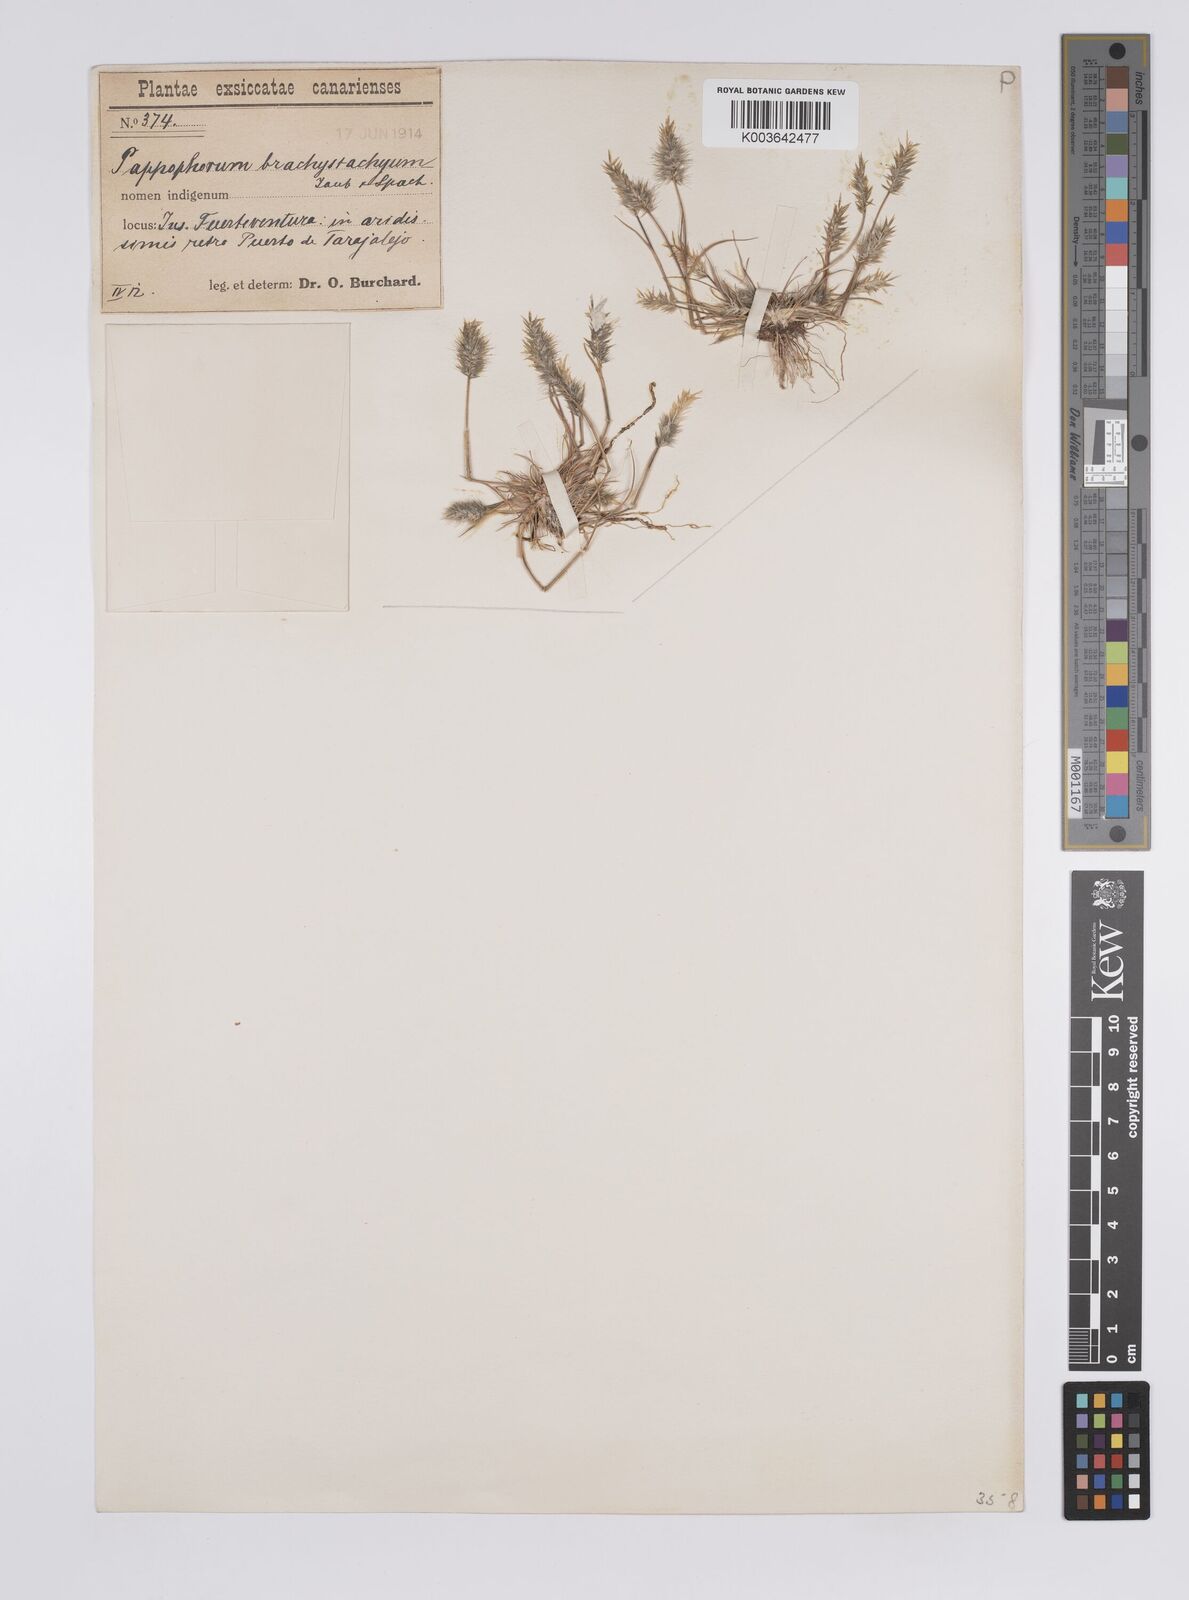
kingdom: Plantae
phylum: Tracheophyta
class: Liliopsida
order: Poales
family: Poaceae
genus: Enneapogon
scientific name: Enneapogon desvauxii
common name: Feather pappus grass
